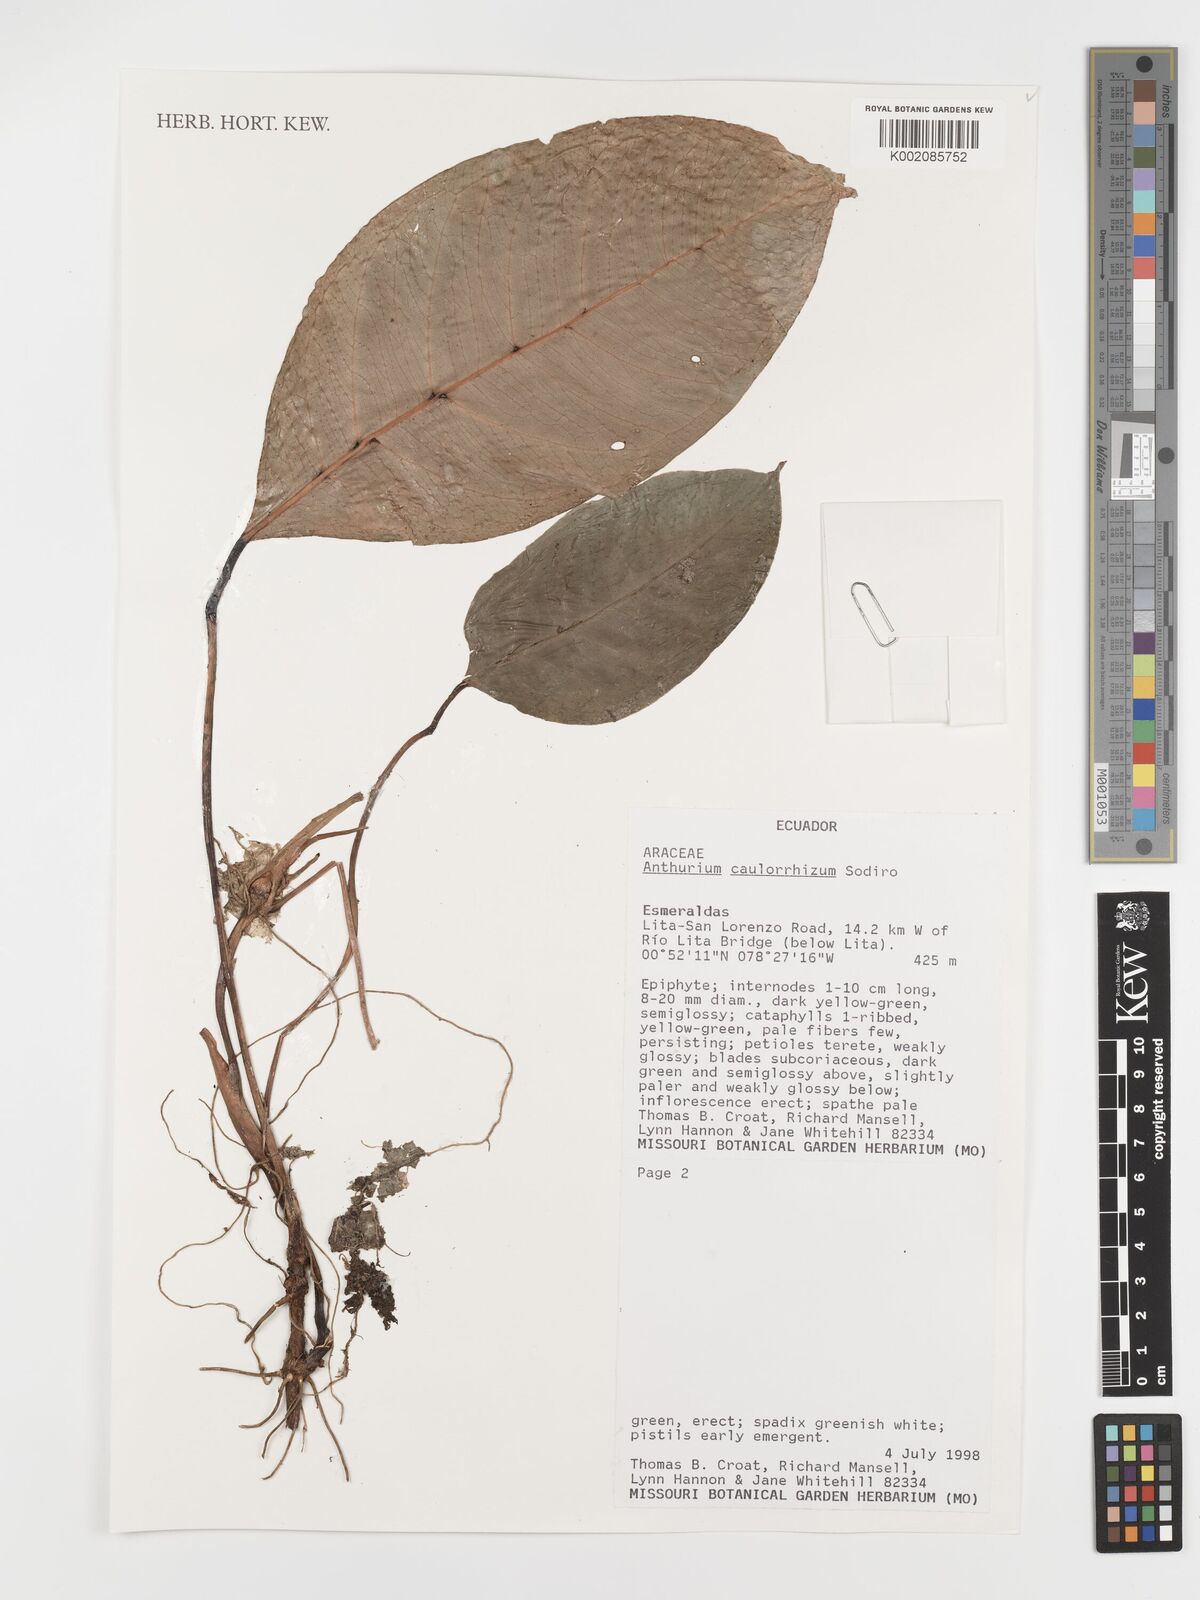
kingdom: Plantae
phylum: Tracheophyta
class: Liliopsida
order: Alismatales
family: Araceae
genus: Anthurium
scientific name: Anthurium caulorrhizum
